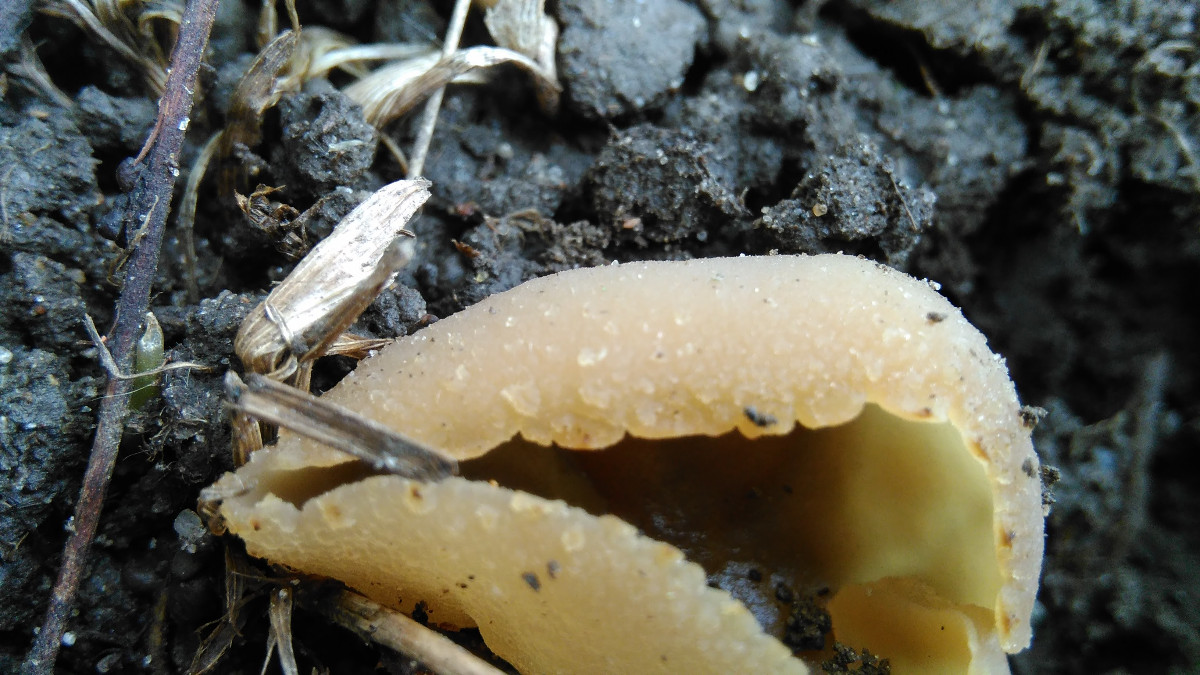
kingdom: Fungi
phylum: Ascomycota
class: Pezizomycetes
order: Pezizales
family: Pezizaceae
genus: Peziza
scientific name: Peziza
